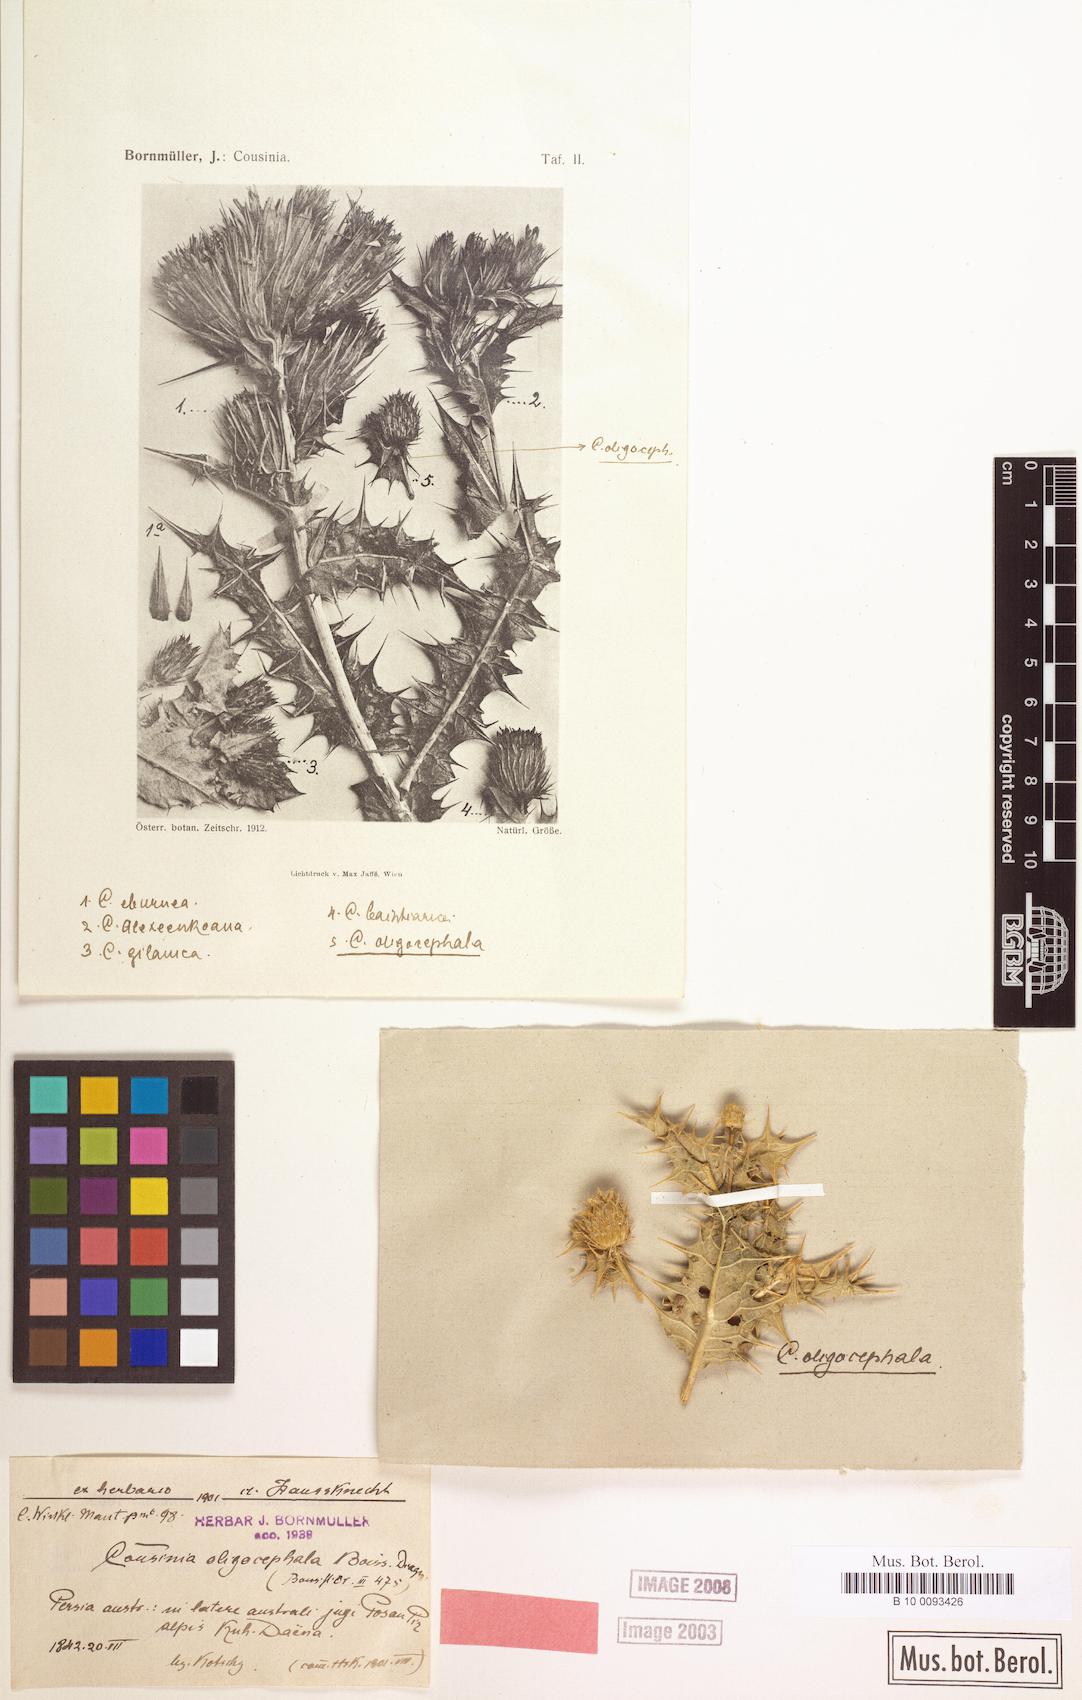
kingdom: Plantae
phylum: Tracheophyta
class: Magnoliopsida
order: Asterales
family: Asteraceae
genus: Cousinia
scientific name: Cousinia oligocephala
